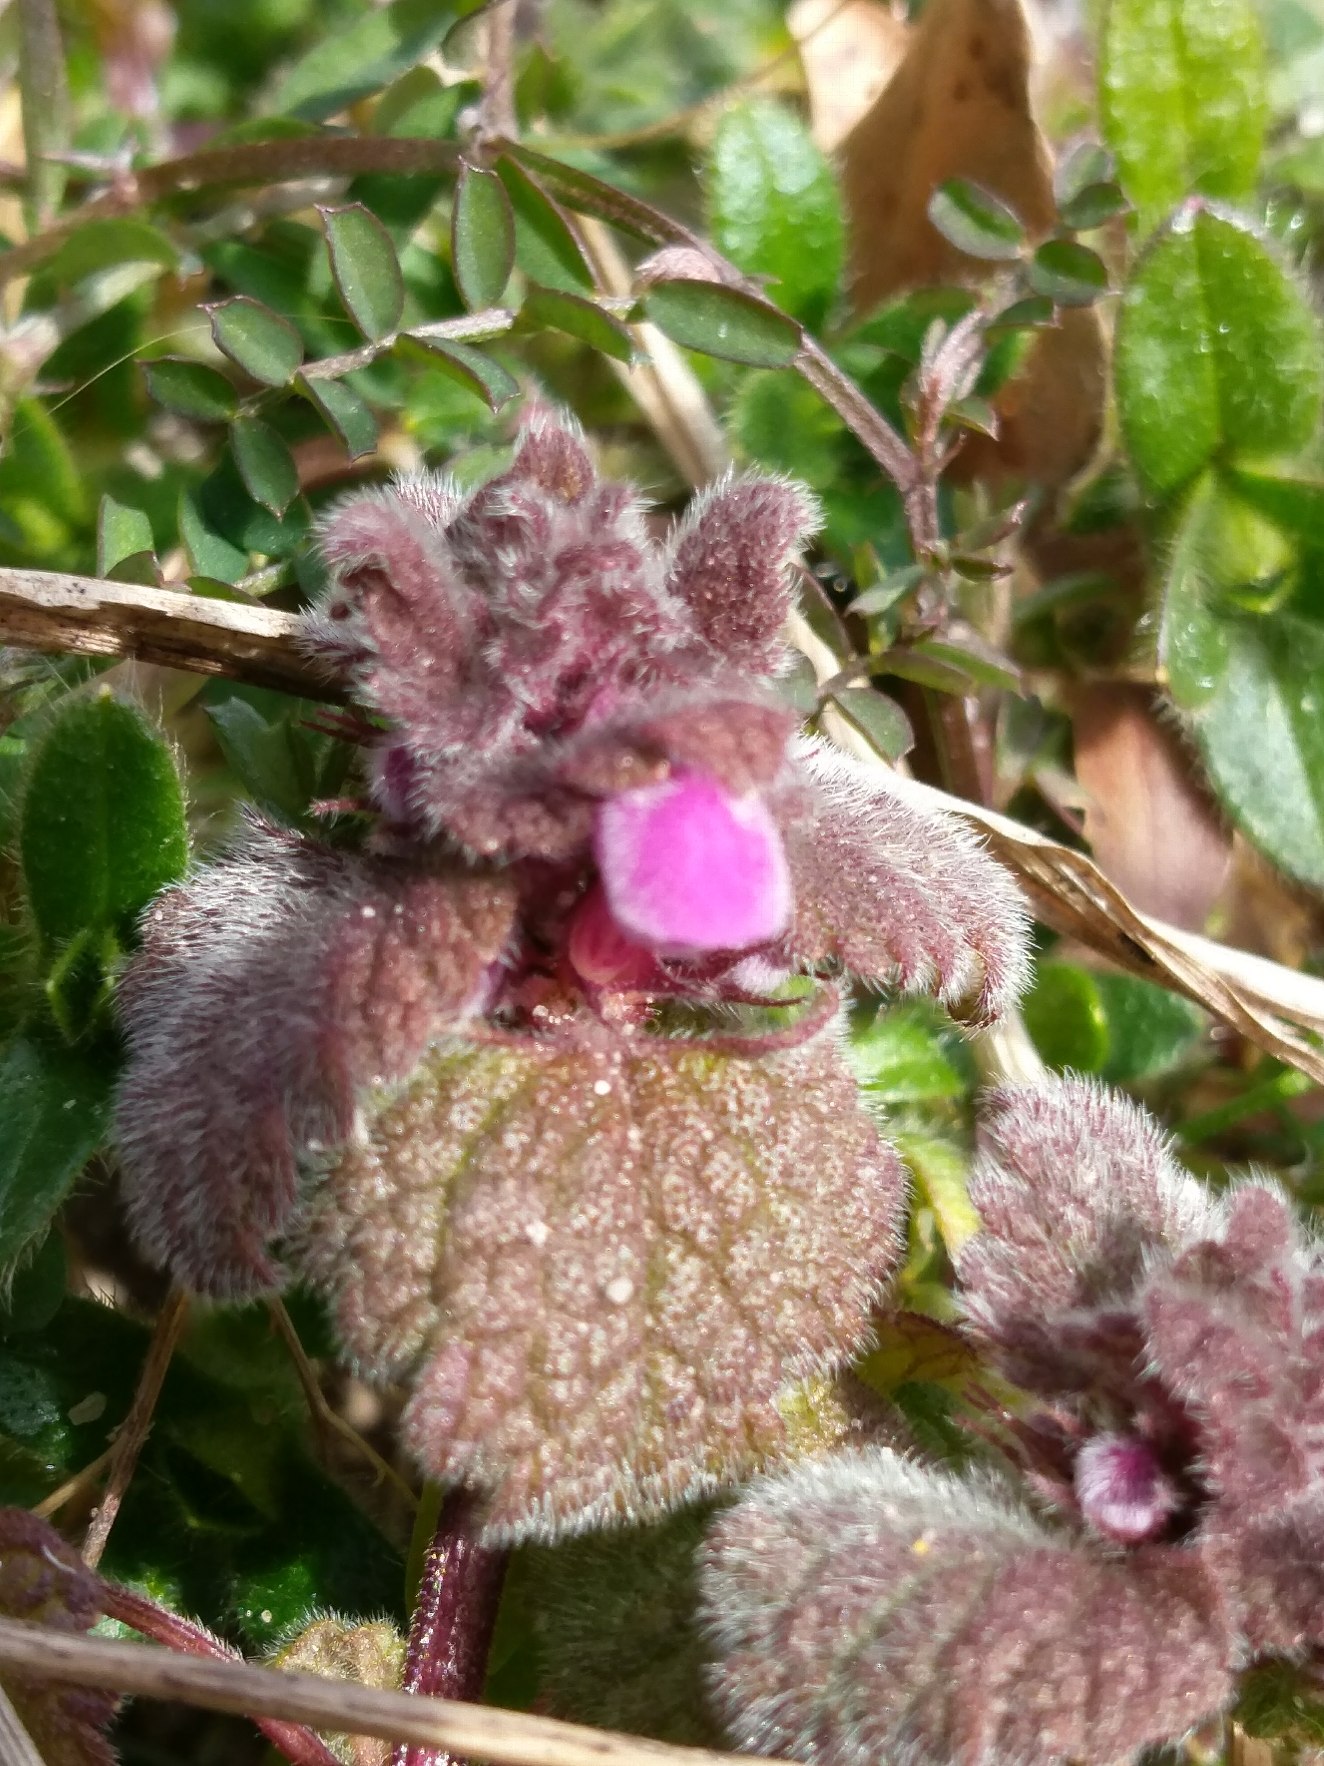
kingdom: Plantae
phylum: Tracheophyta
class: Magnoliopsida
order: Lamiales
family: Lamiaceae
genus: Lamium
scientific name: Lamium purpureum
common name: Rød tvetand
